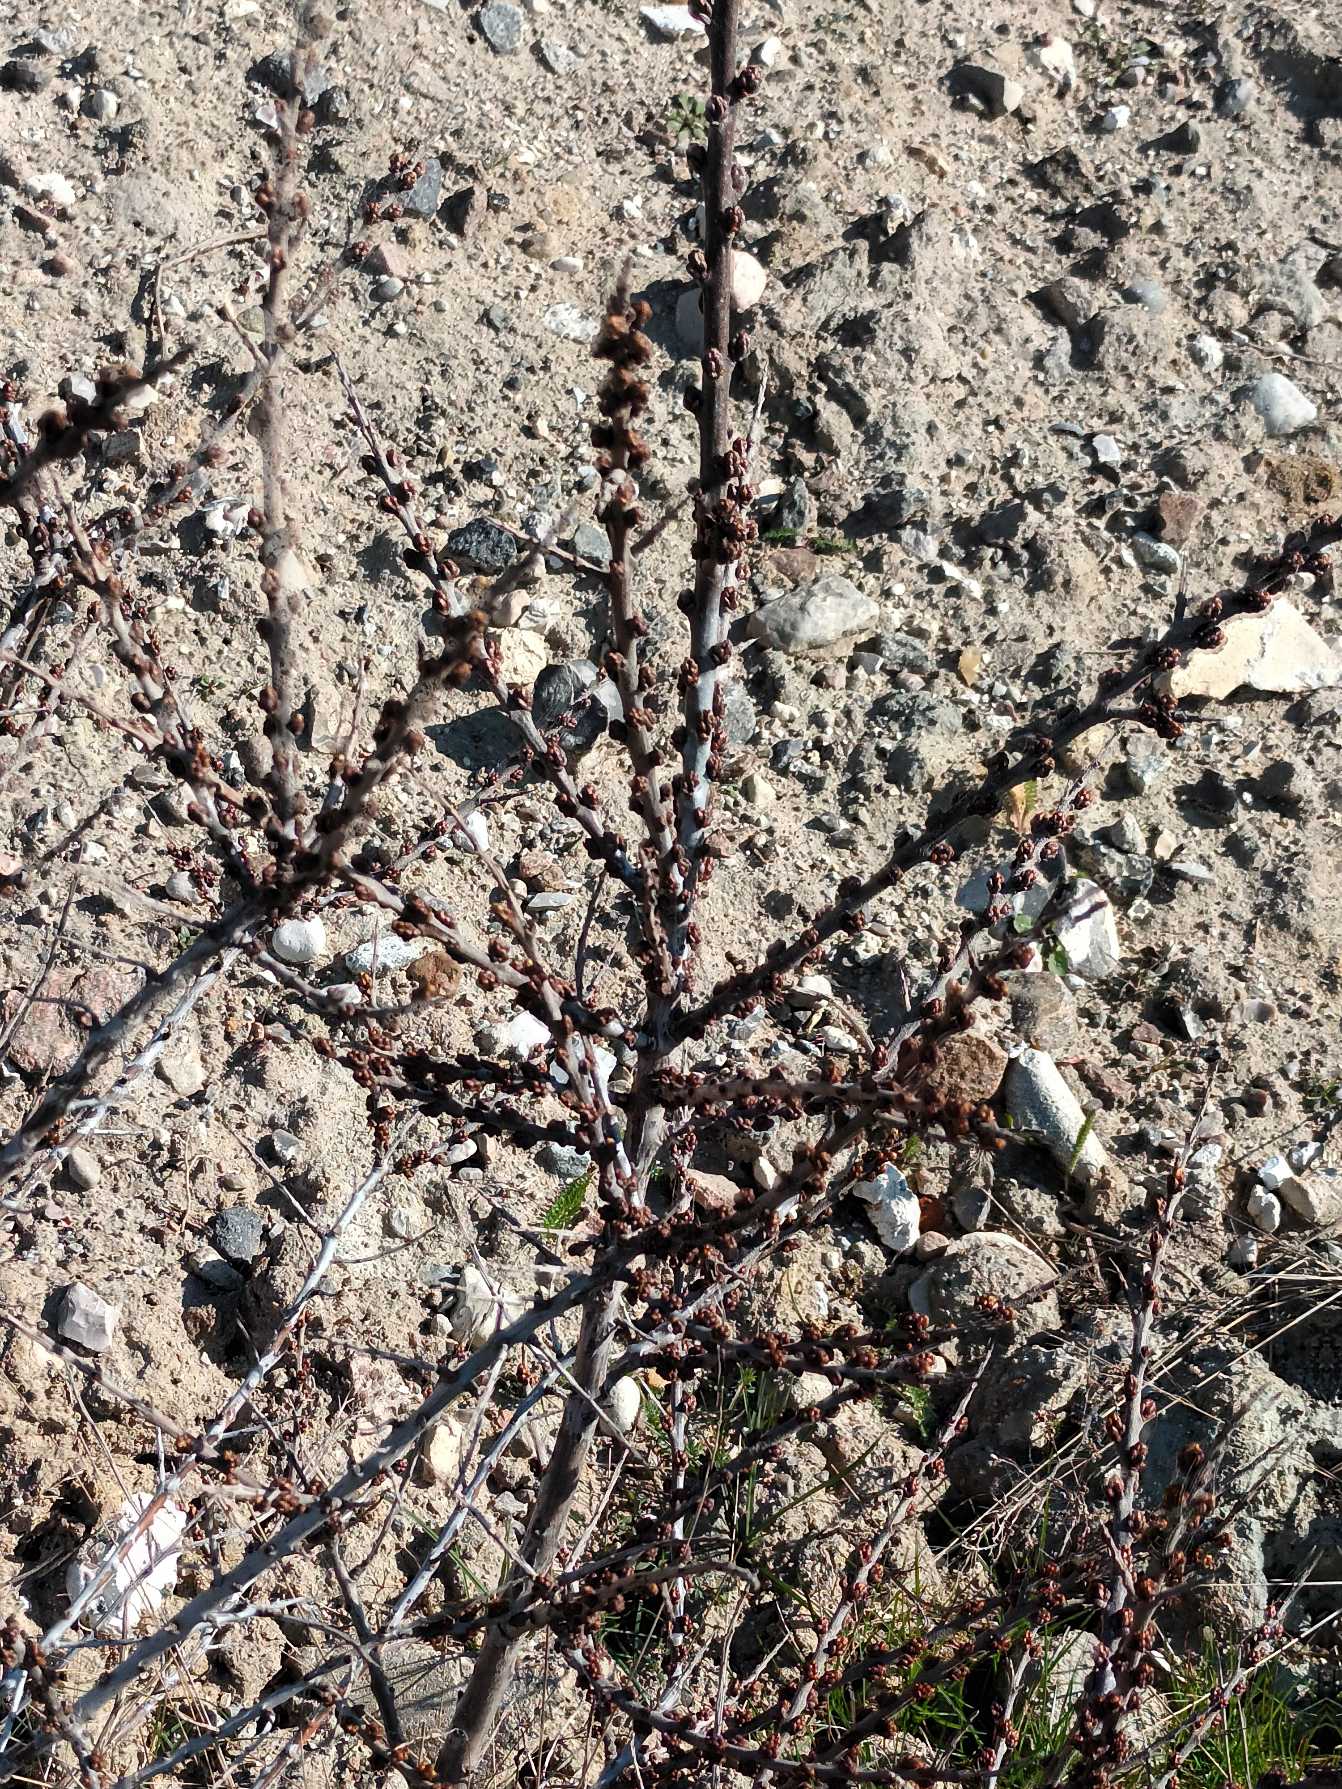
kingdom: Plantae
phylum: Tracheophyta
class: Magnoliopsida
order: Rosales
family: Elaeagnaceae
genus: Hippophae
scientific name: Hippophae rhamnoides
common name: Havtorn
